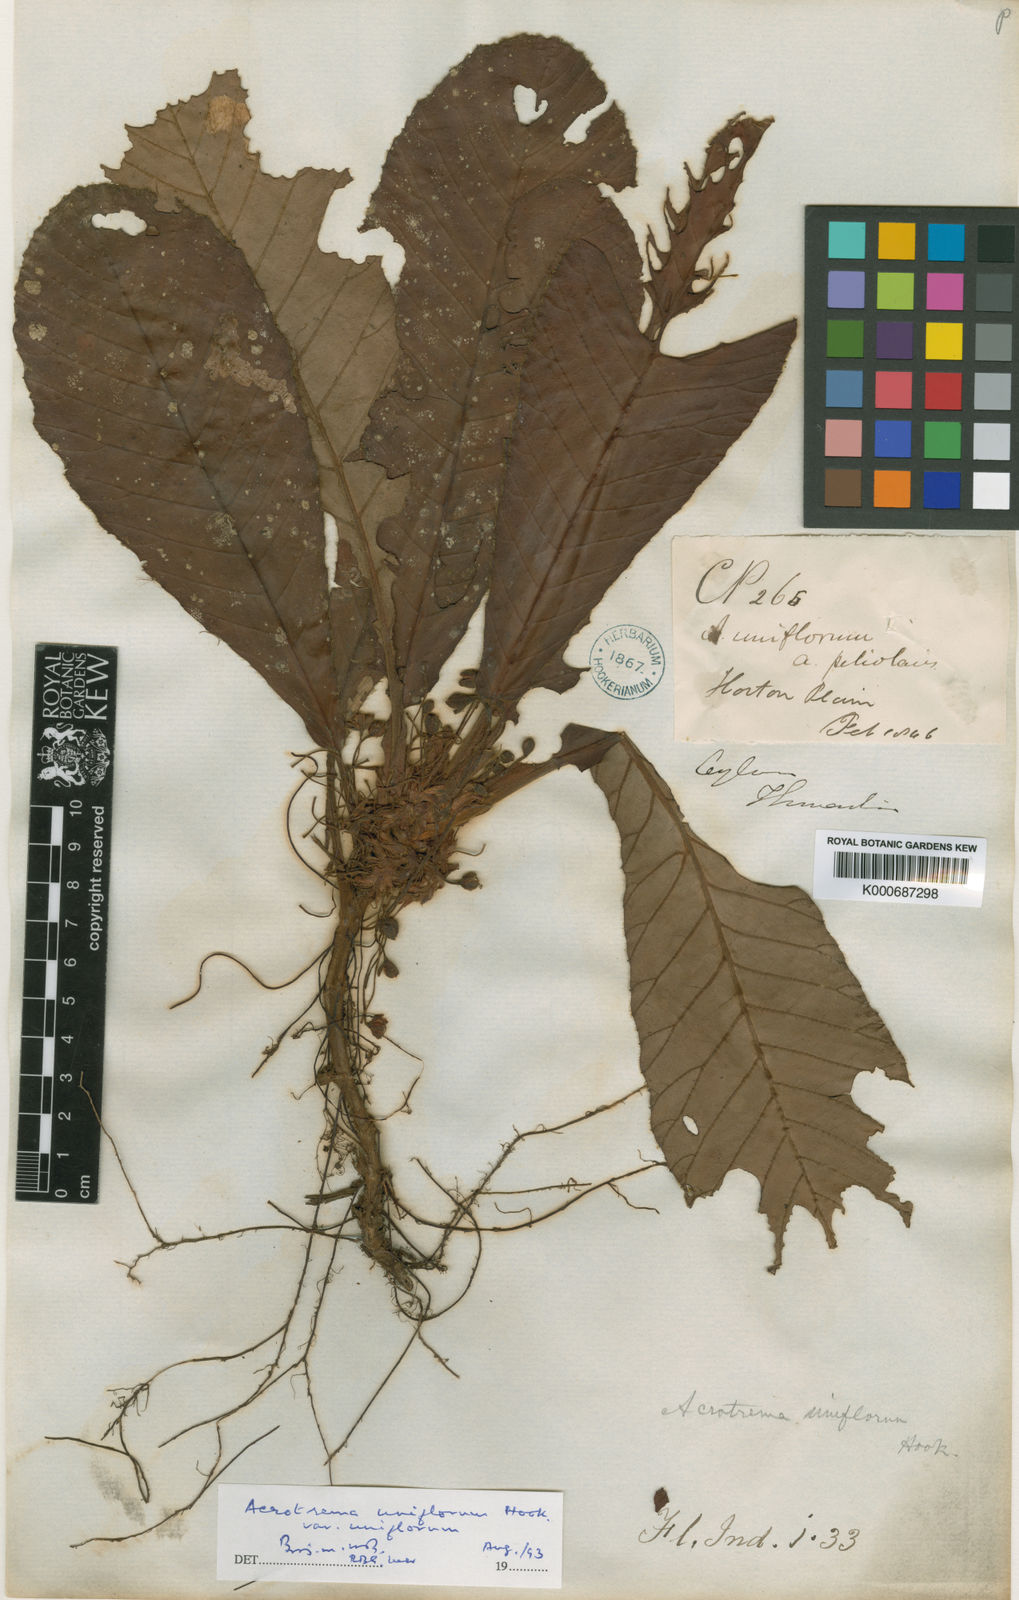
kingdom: Plantae
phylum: Tracheophyta
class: Magnoliopsida
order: Dilleniales
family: Dilleniaceae
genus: Acrotrema
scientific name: Acrotrema uniflorum
